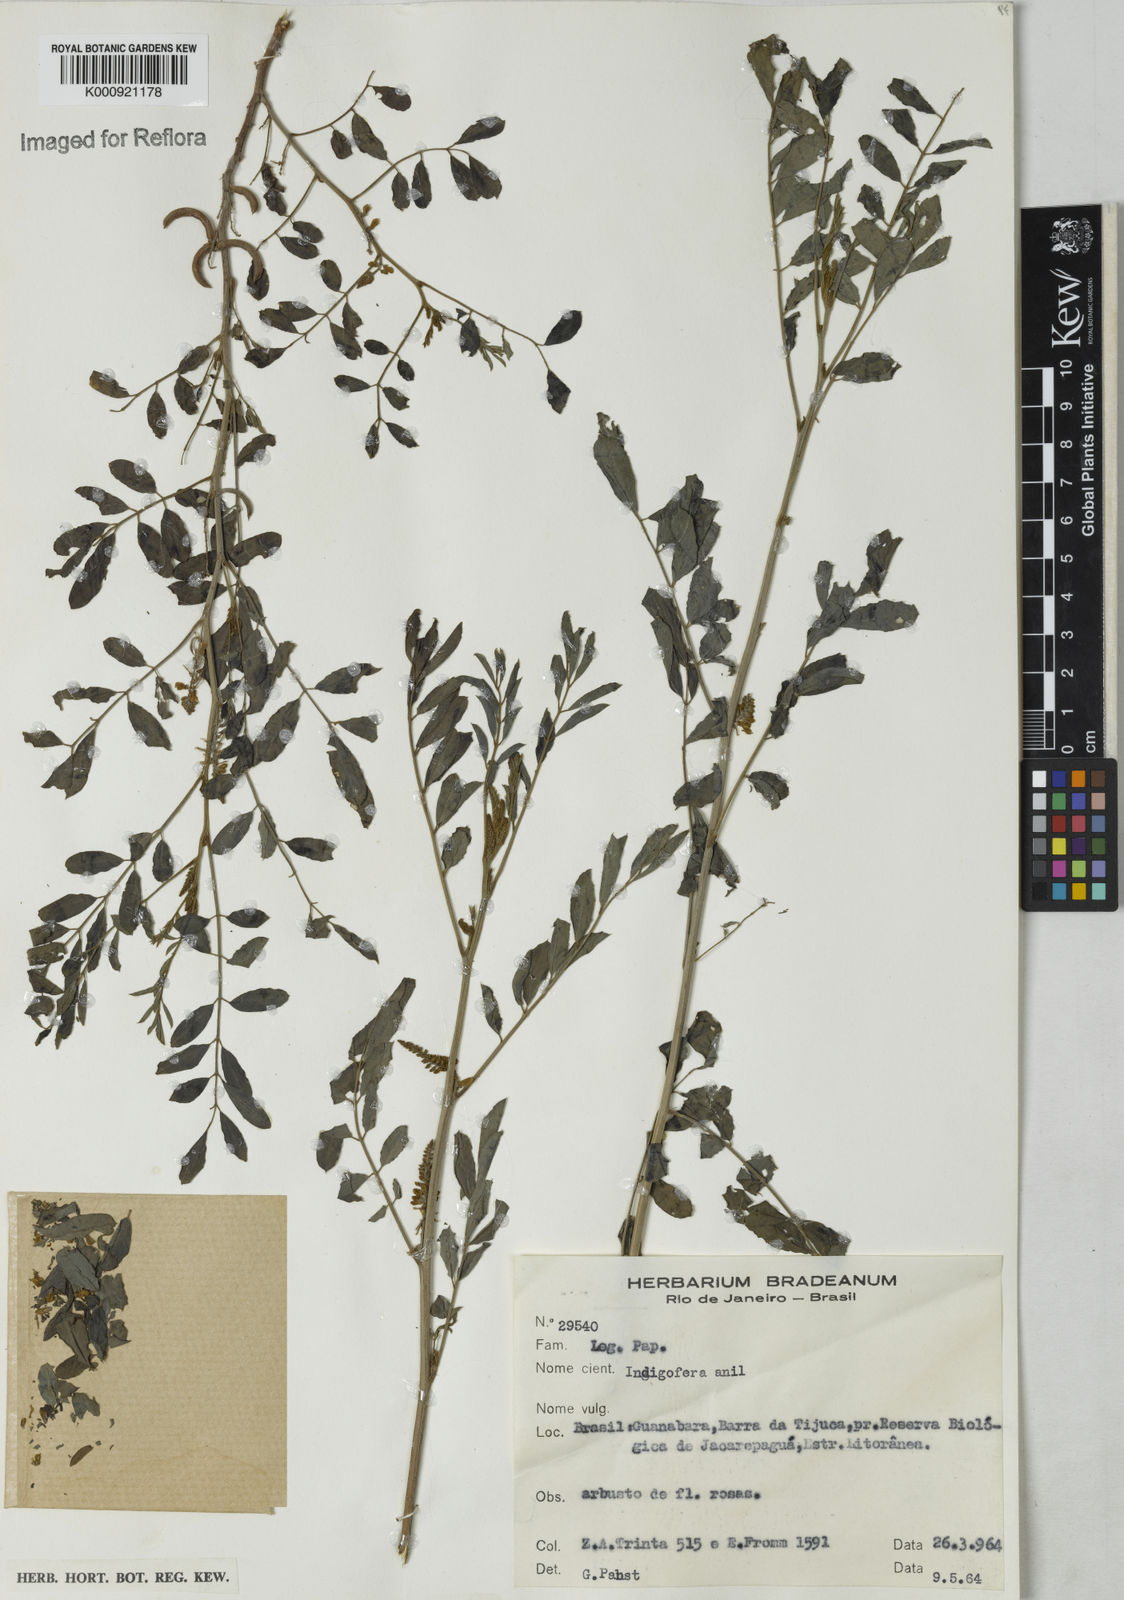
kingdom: Plantae
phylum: Tracheophyta
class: Magnoliopsida
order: Fabales
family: Fabaceae
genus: Indigofera
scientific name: Indigofera suffruticosa
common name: Anil de pasto
